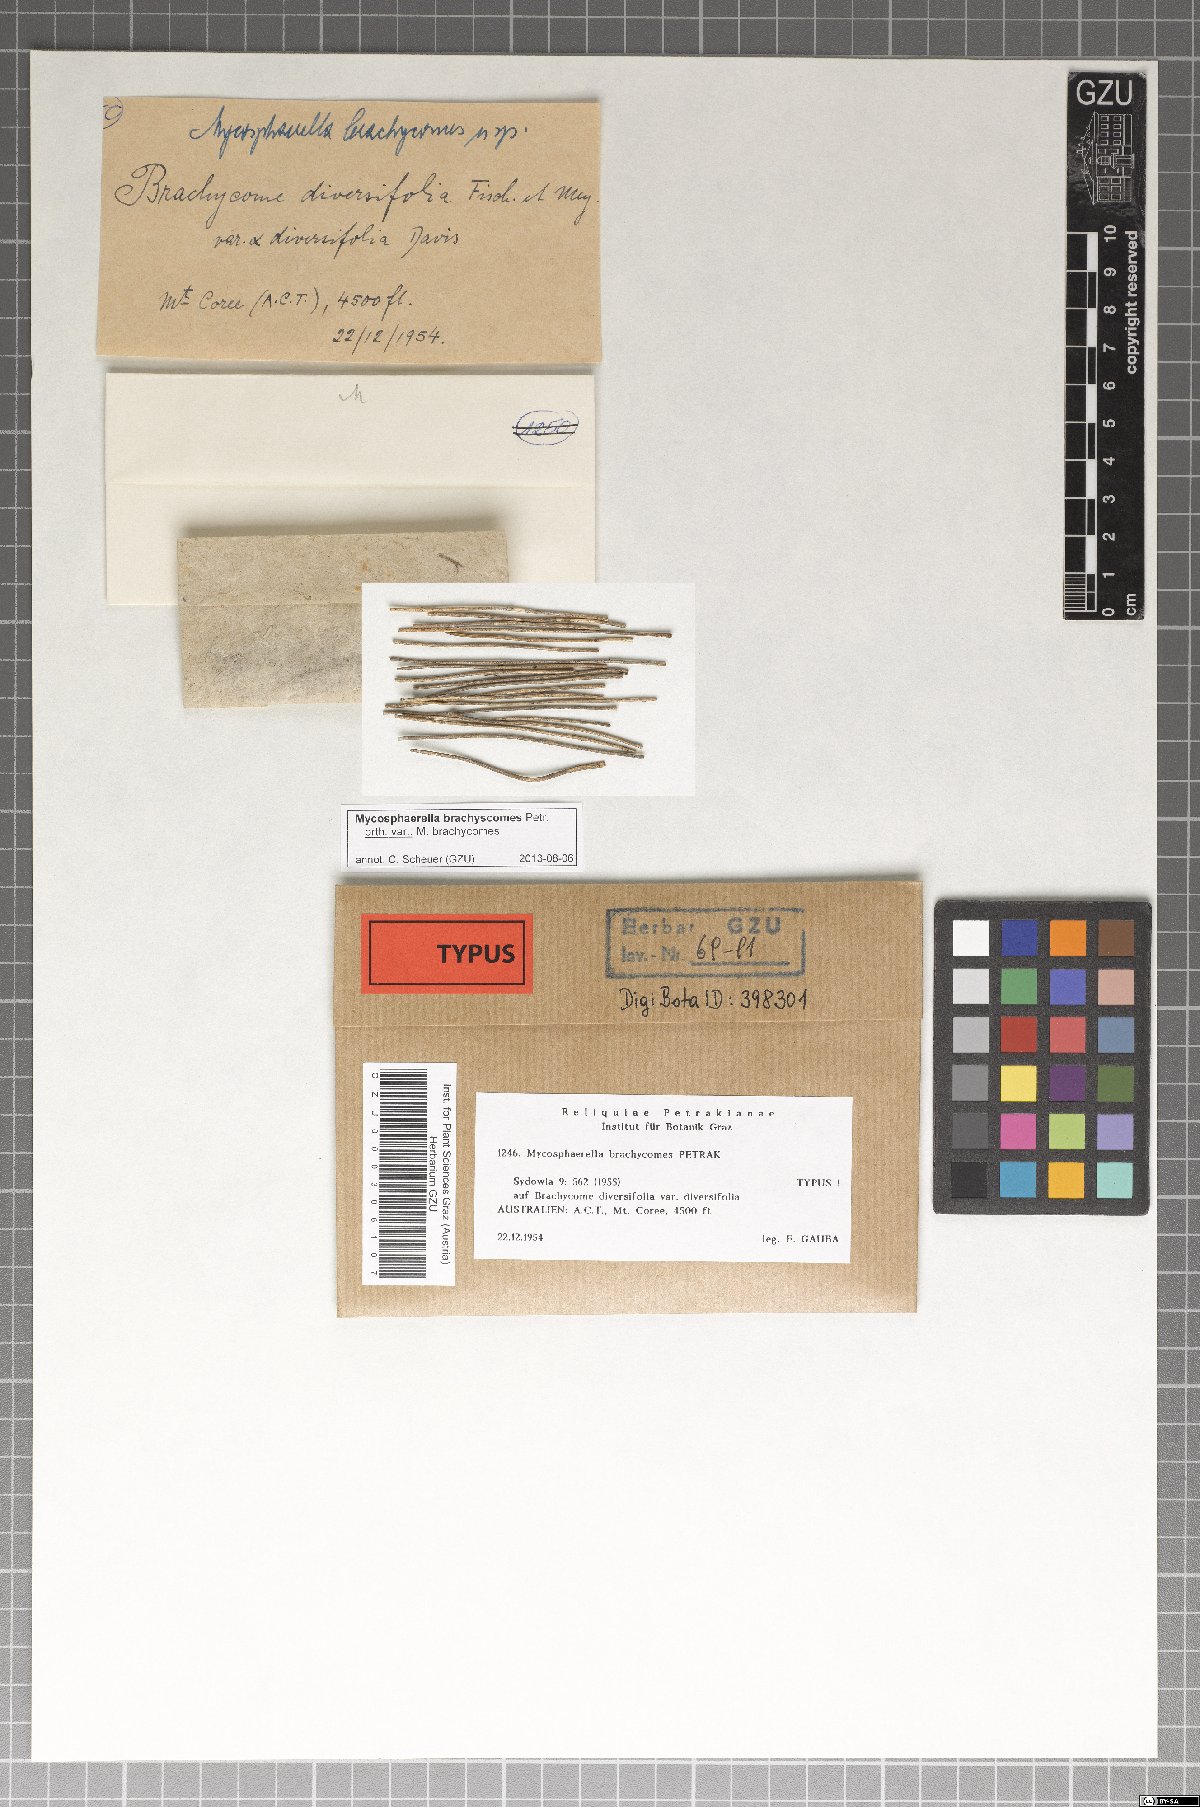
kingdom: Fungi
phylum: Ascomycota
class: Dothideomycetes
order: Mycosphaerellales
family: Mycosphaerellaceae
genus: Mycosphaerella
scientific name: Mycosphaerella brachyscomes
